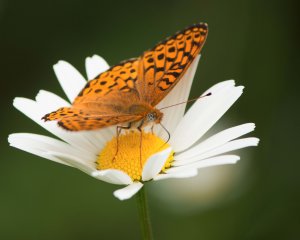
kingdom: Animalia
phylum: Arthropoda
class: Insecta
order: Lepidoptera
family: Nymphalidae
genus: Speyeria
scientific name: Speyeria atlantis
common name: Atlantis Fritillary
